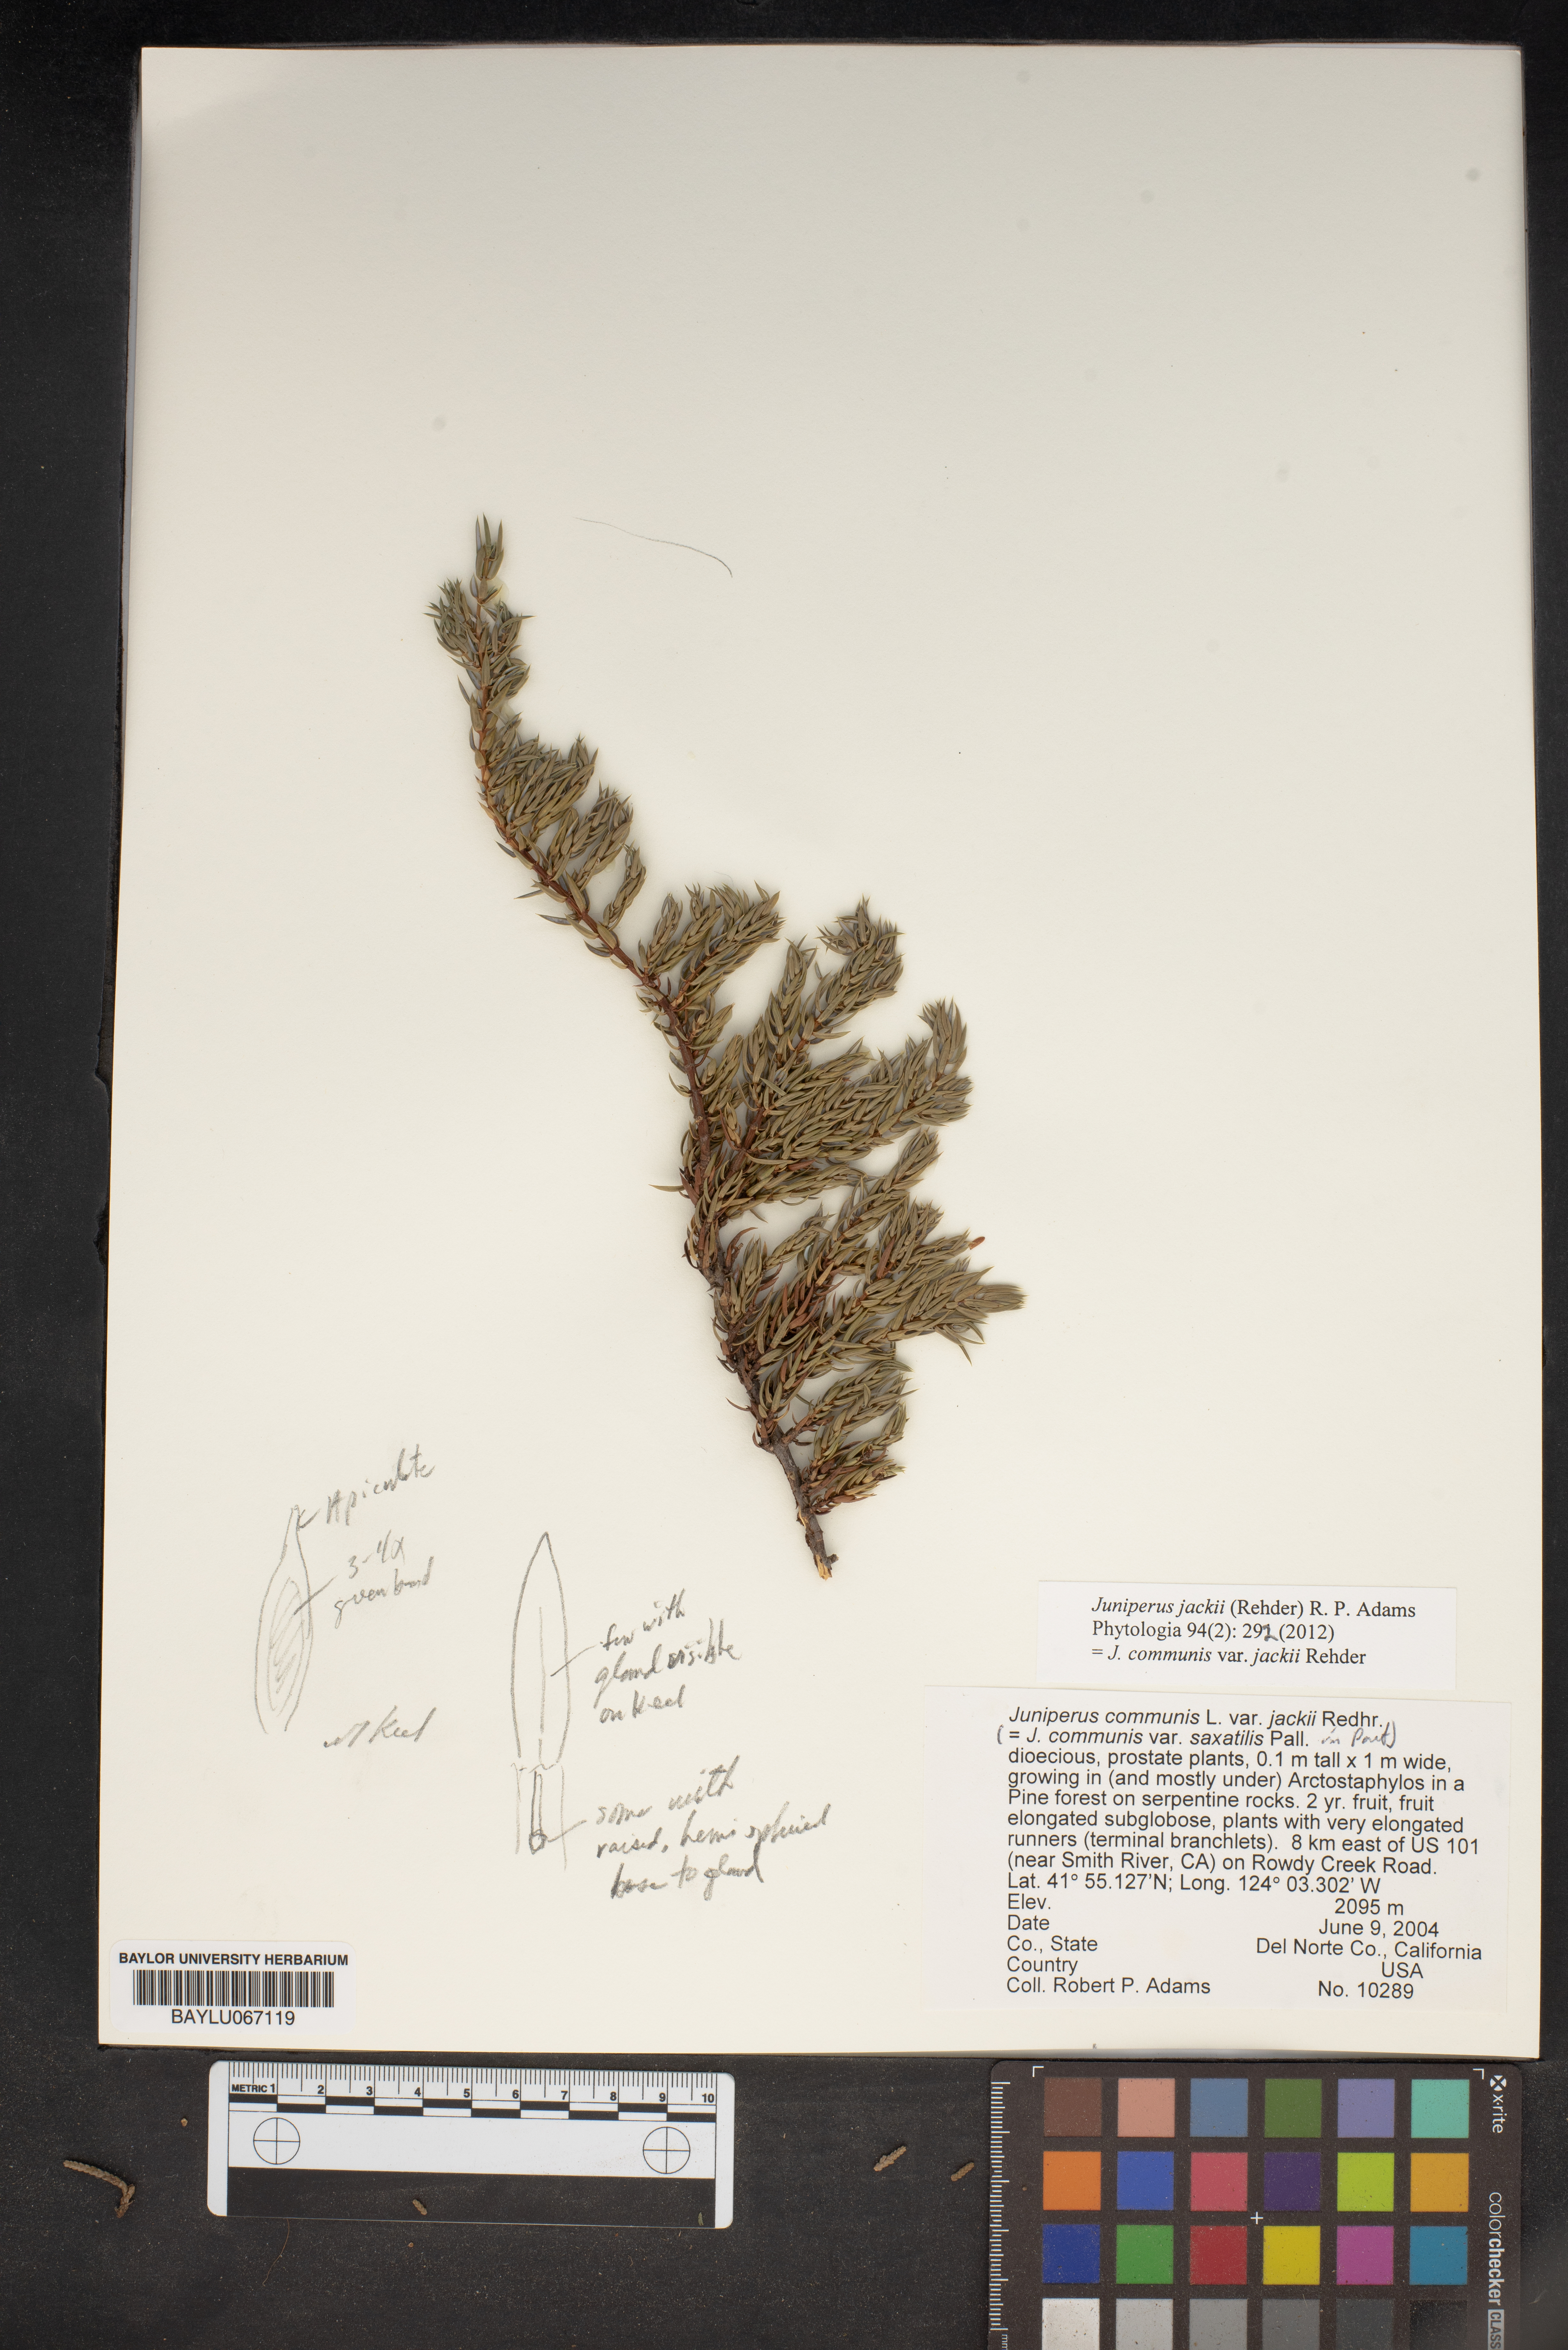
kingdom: Plantae
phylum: Tracheophyta
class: Pinopsida
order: Pinales
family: Cupressaceae
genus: Juniperus
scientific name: Juniperus communis
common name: Common juniper
